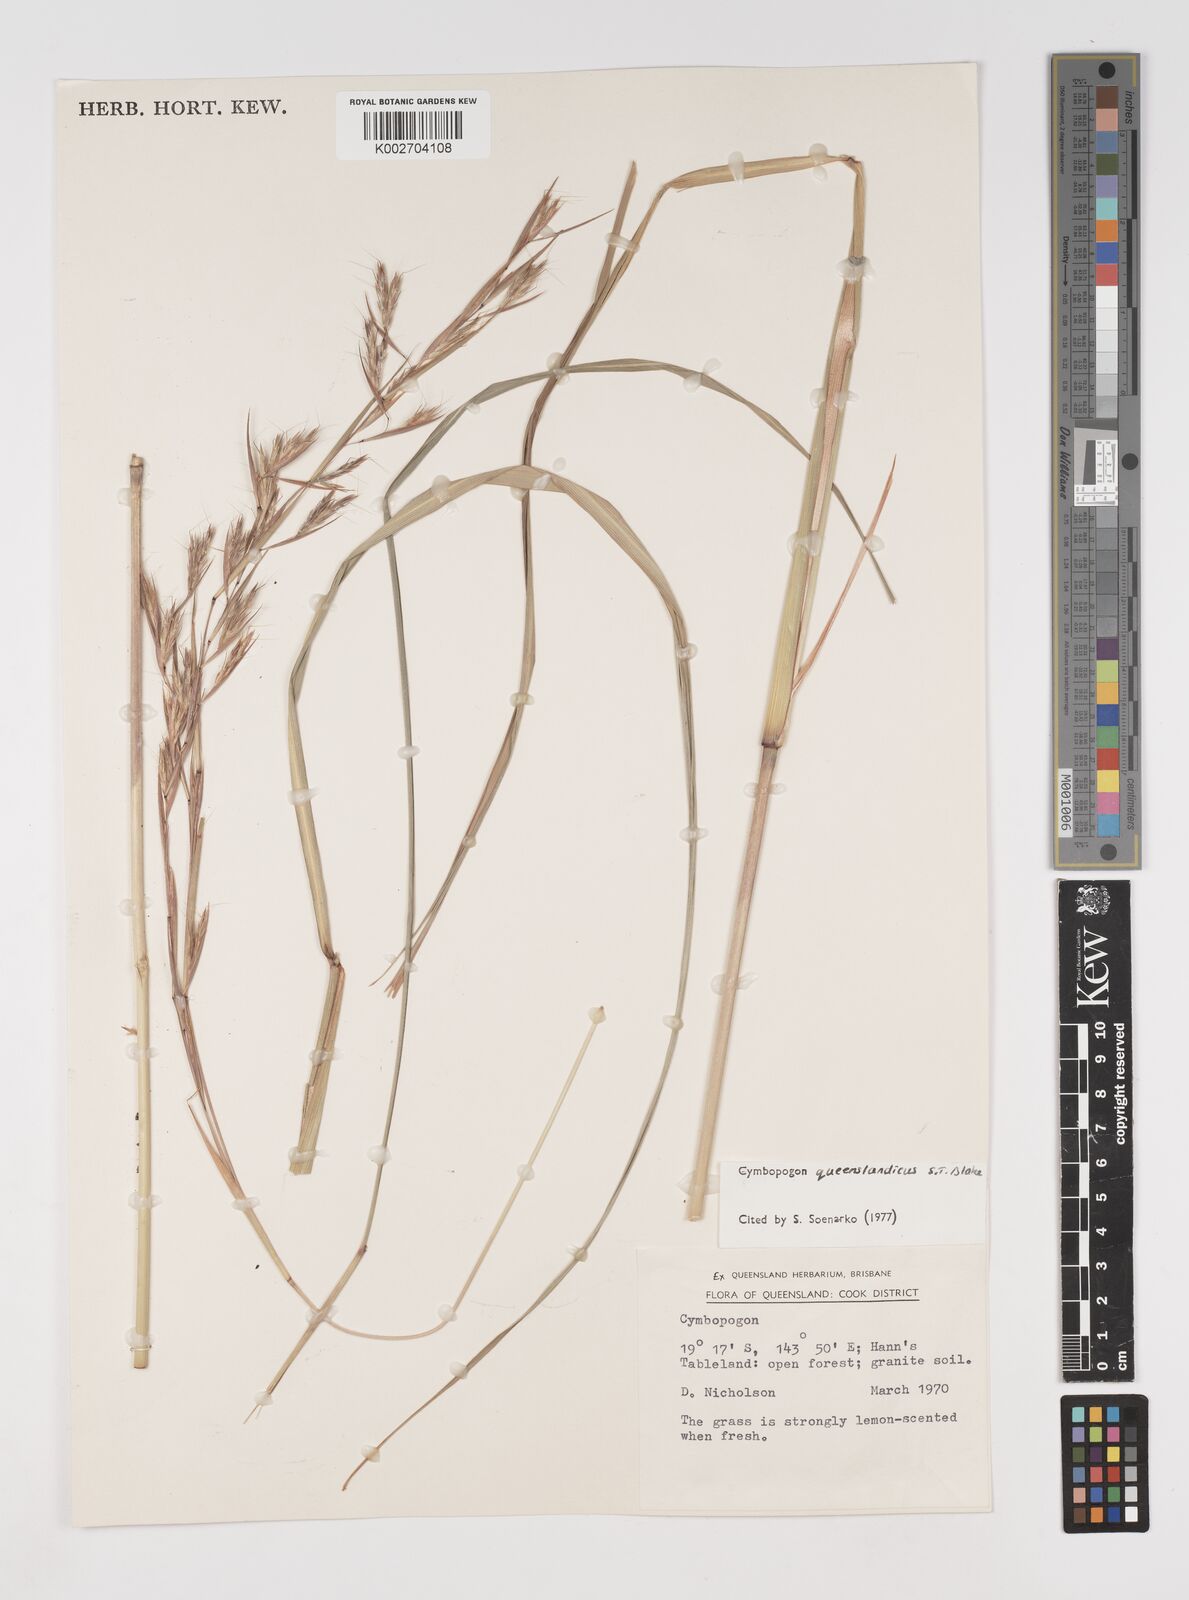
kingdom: Plantae
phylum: Tracheophyta
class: Liliopsida
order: Poales
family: Poaceae
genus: Cymbopogon
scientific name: Cymbopogon queenslandicus
